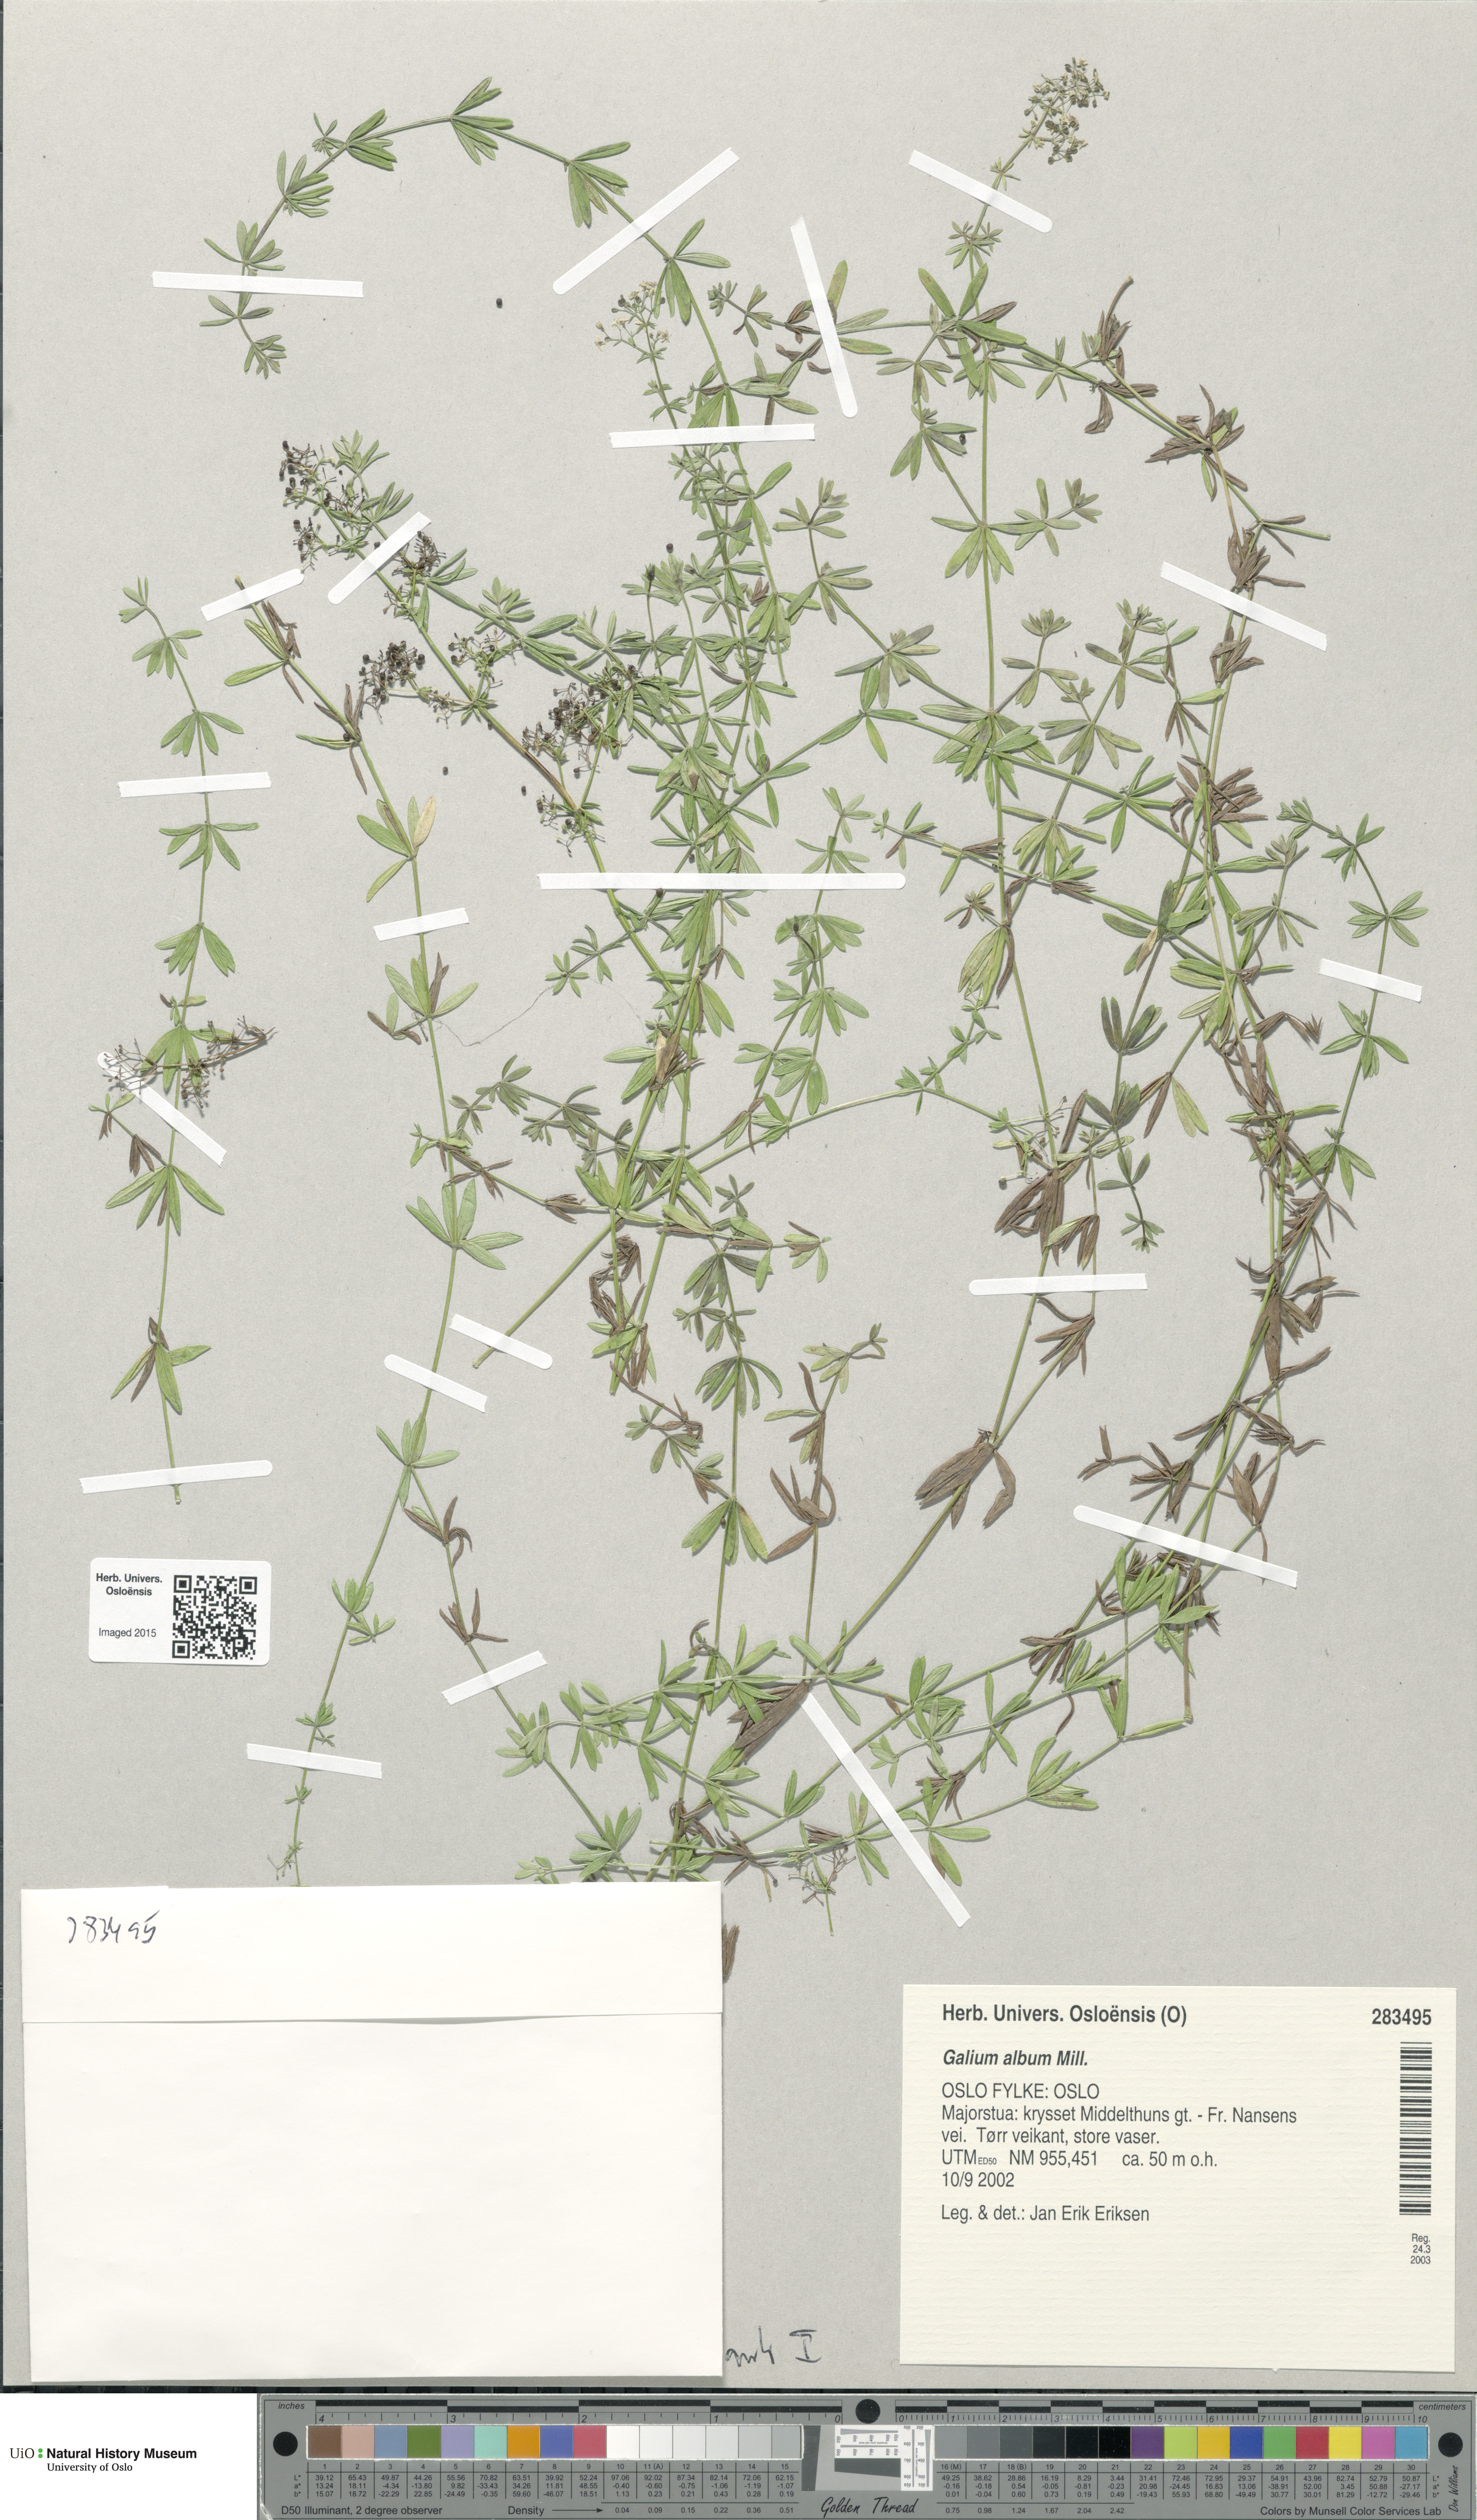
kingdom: Plantae
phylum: Tracheophyta
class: Magnoliopsida
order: Gentianales
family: Rubiaceae
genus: Galium
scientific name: Galium album
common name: White bedstraw
